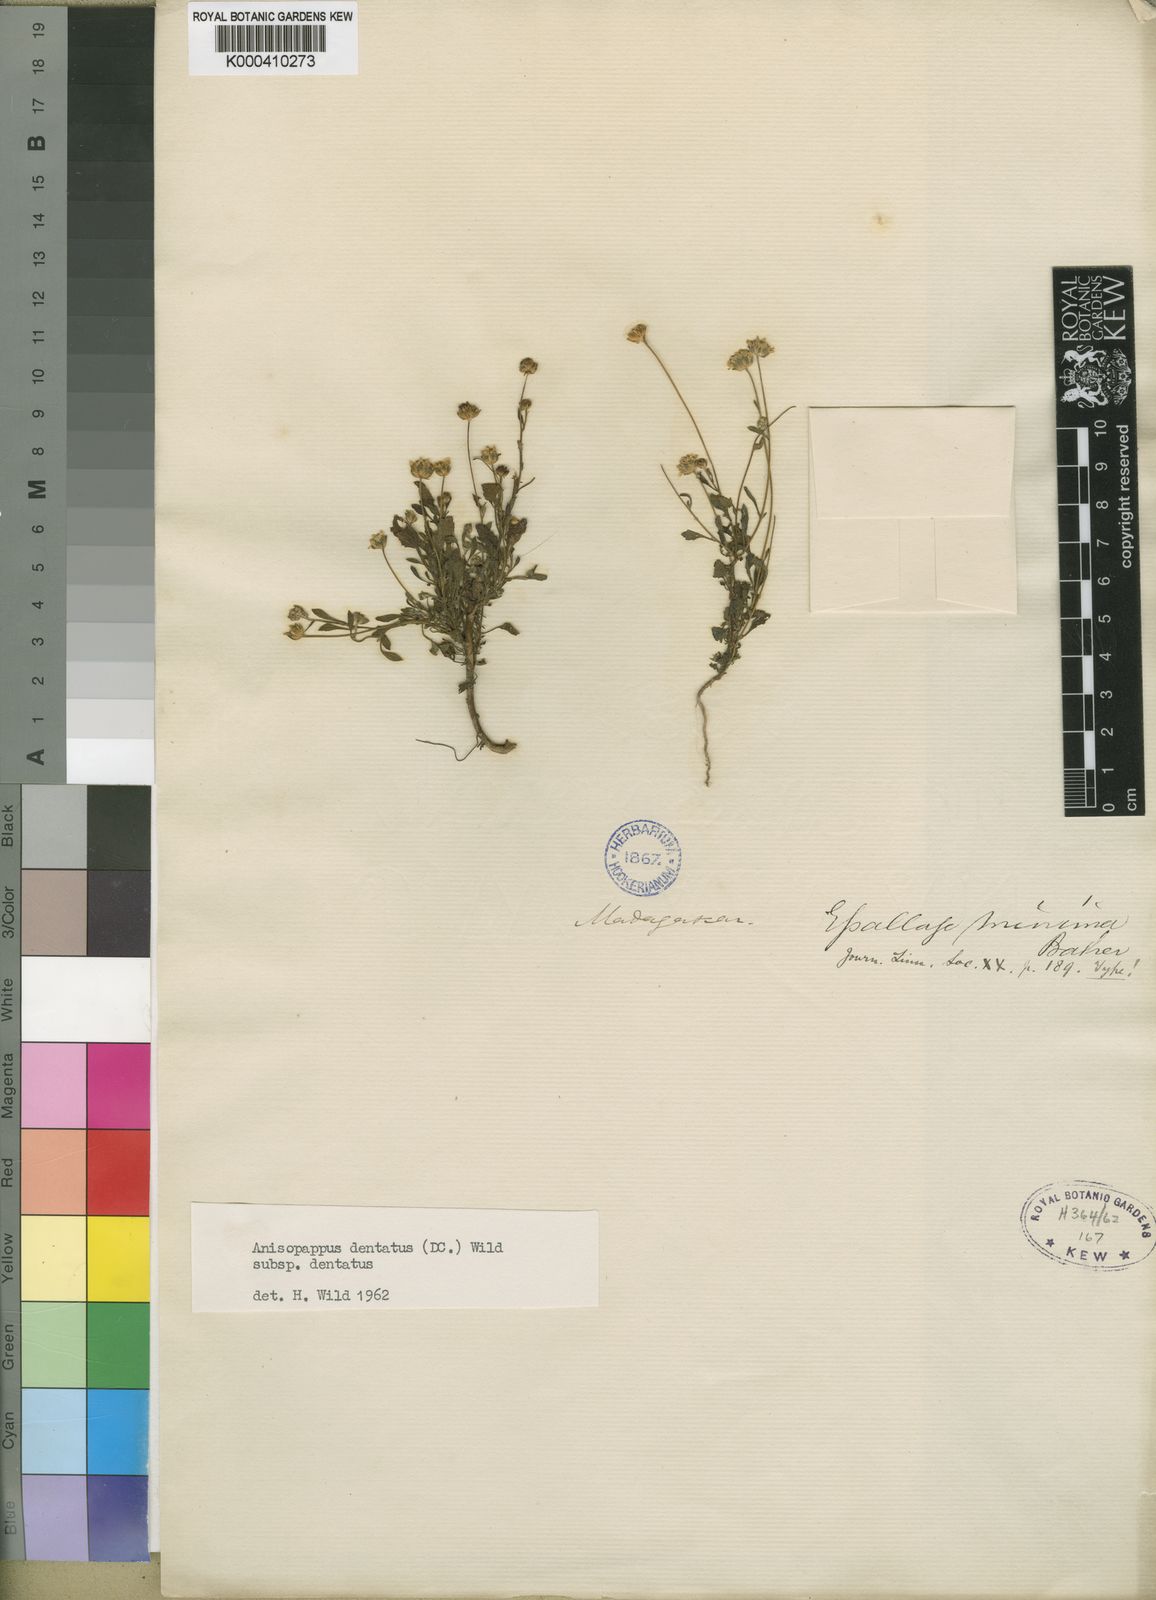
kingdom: Plantae
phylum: Tracheophyta
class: Magnoliopsida
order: Asterales
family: Asteraceae
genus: Anisopappus
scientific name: Anisopappus chinensis
